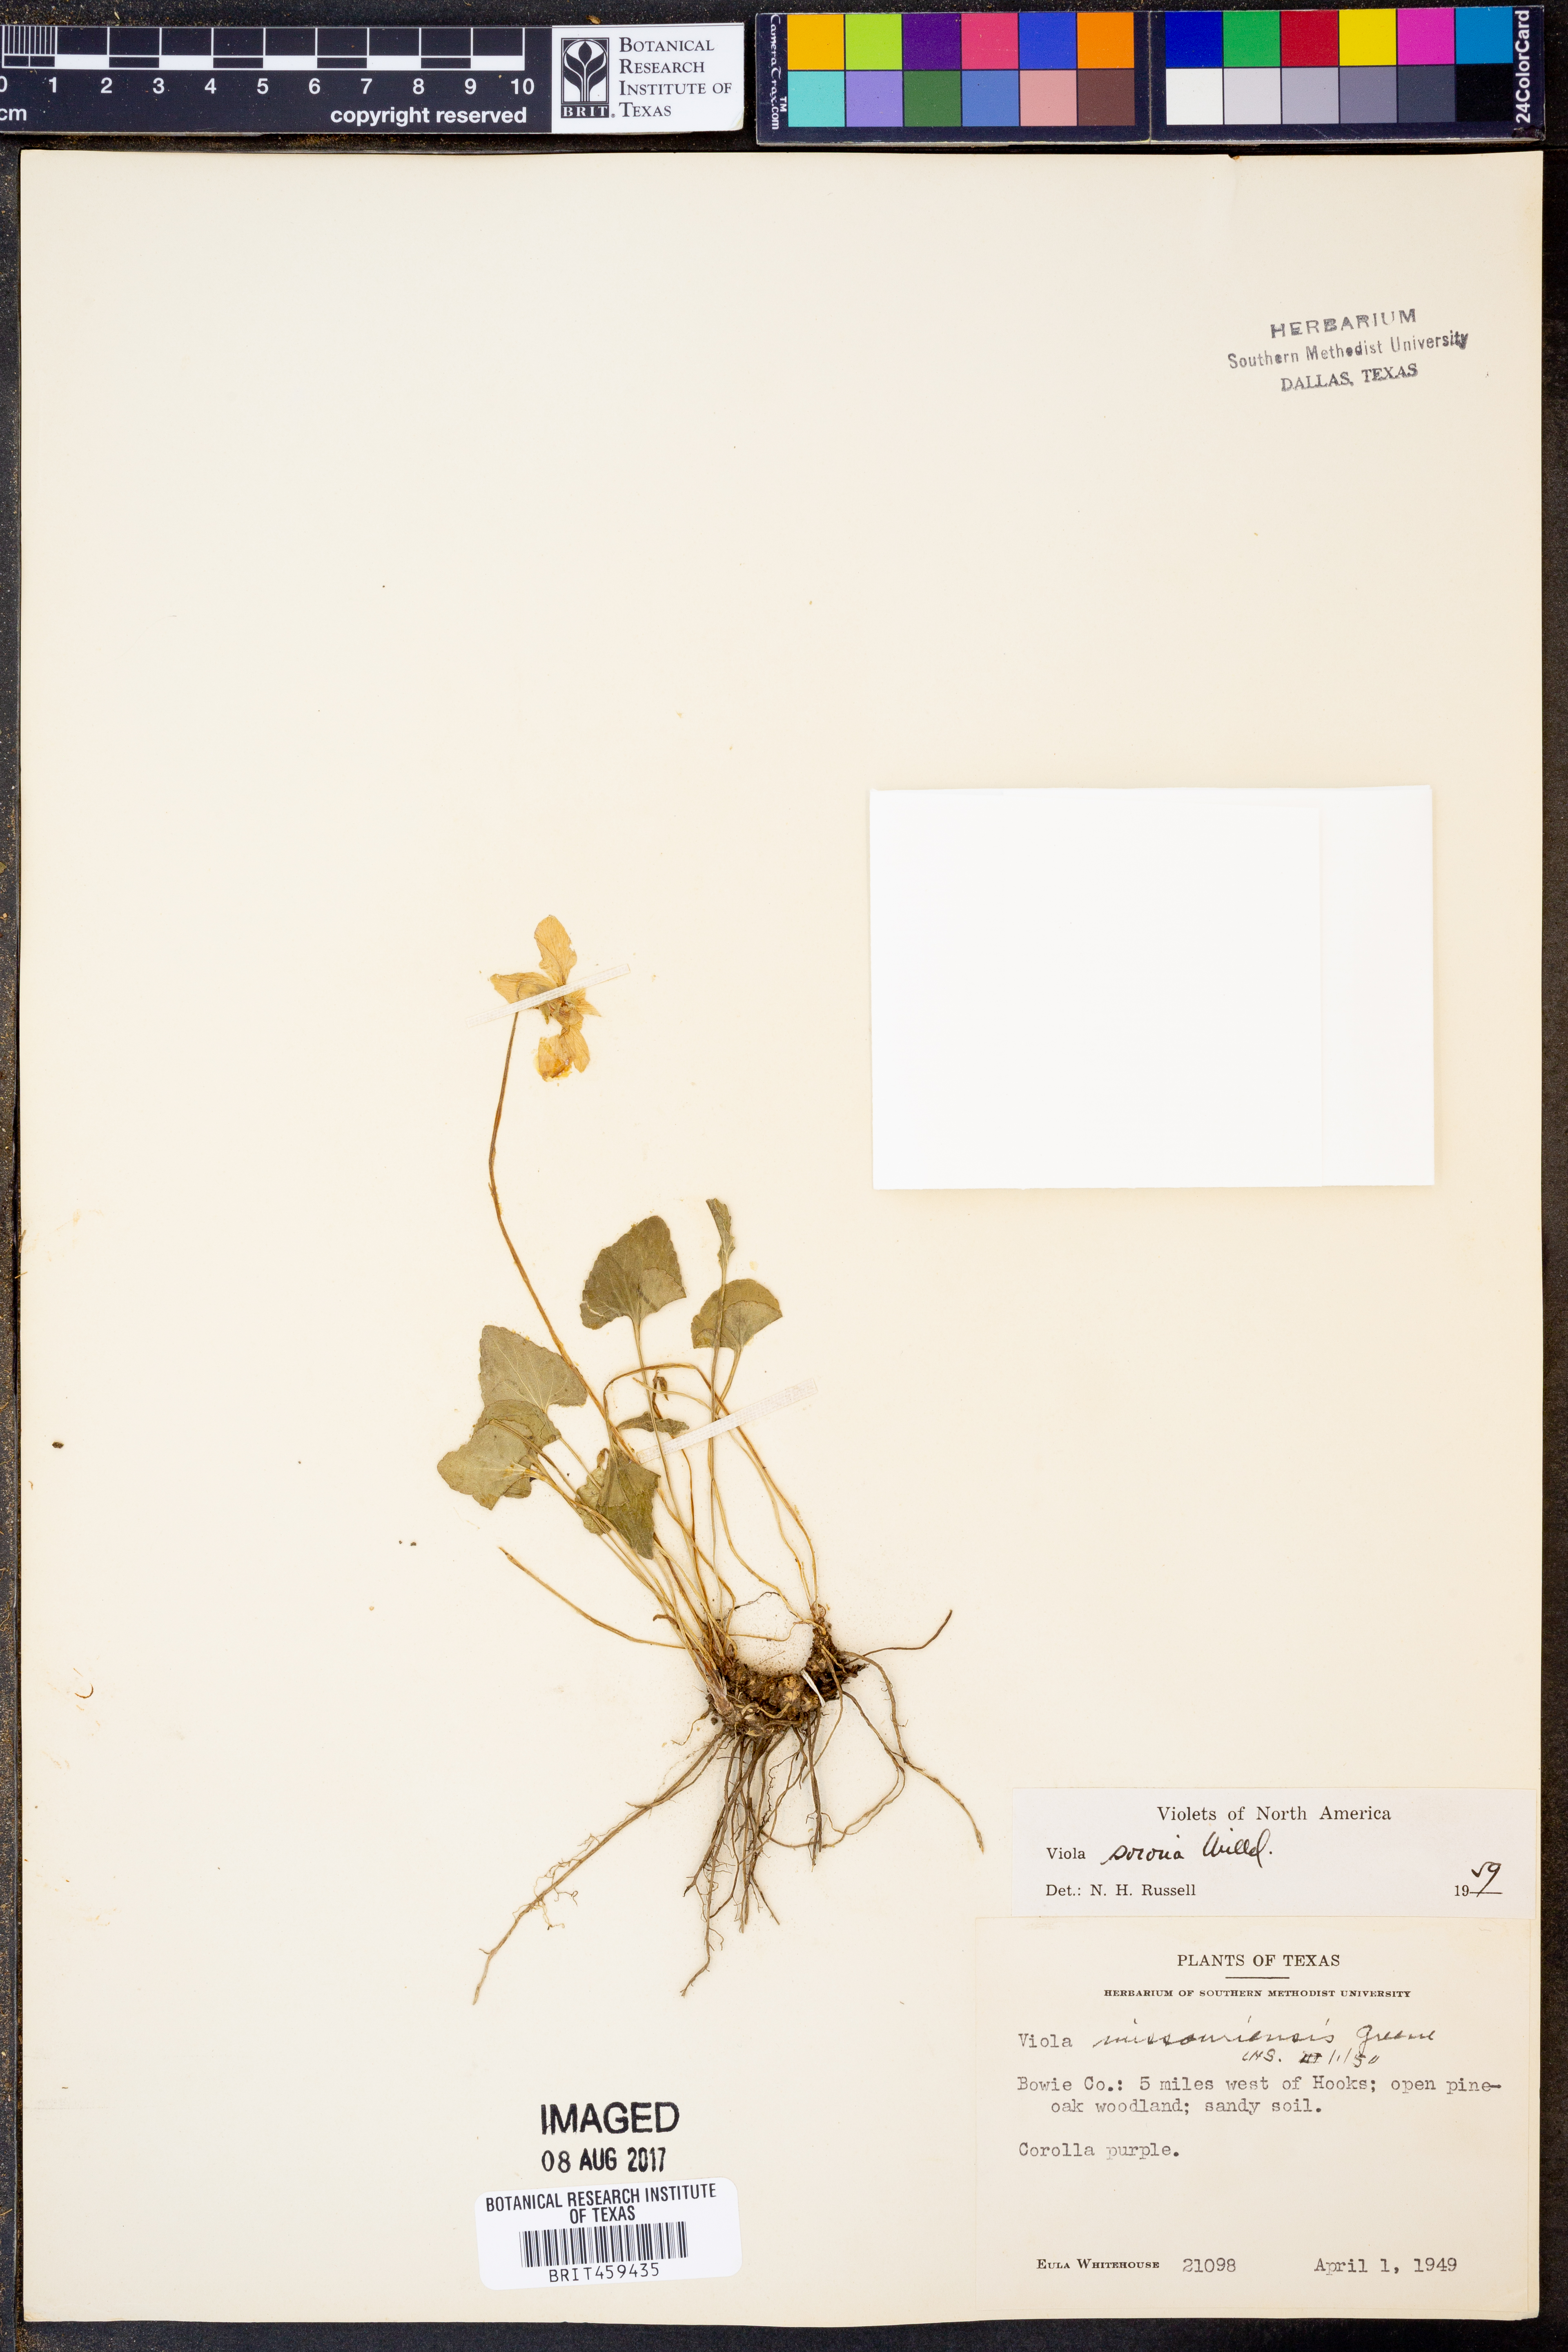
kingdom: Plantae
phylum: Tracheophyta
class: Magnoliopsida
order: Malpighiales
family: Violaceae
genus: Viola
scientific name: Viola sororia
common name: Dooryard violet
